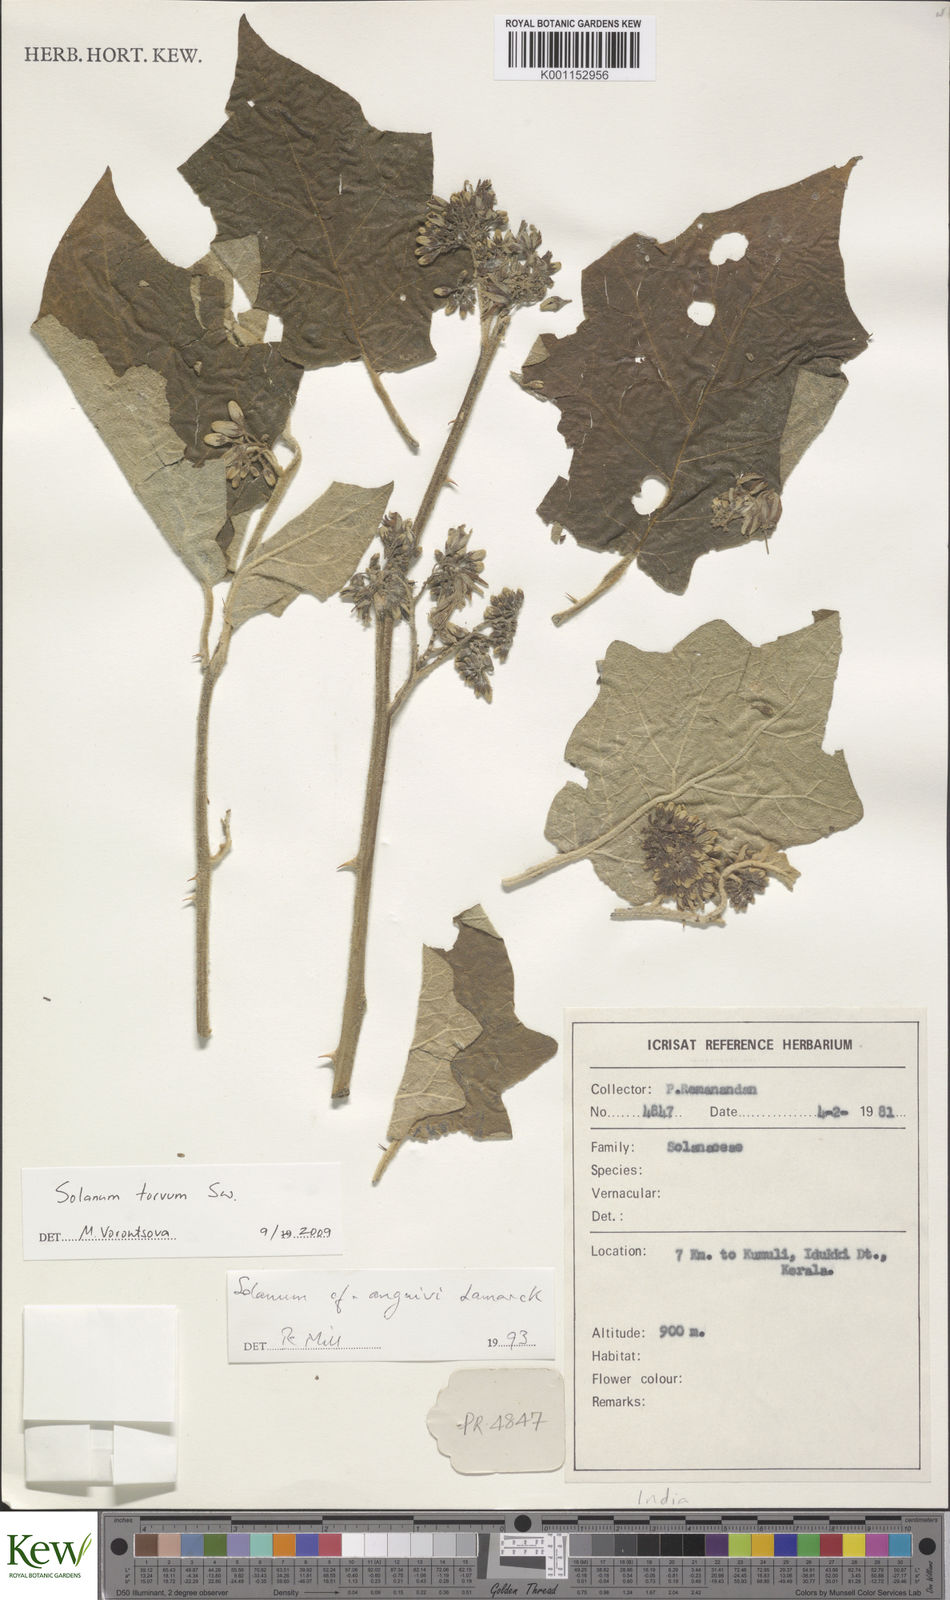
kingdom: Plantae
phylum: Tracheophyta
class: Magnoliopsida
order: Solanales
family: Solanaceae
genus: Solanum
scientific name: Solanum torvum
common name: Turkey berry
